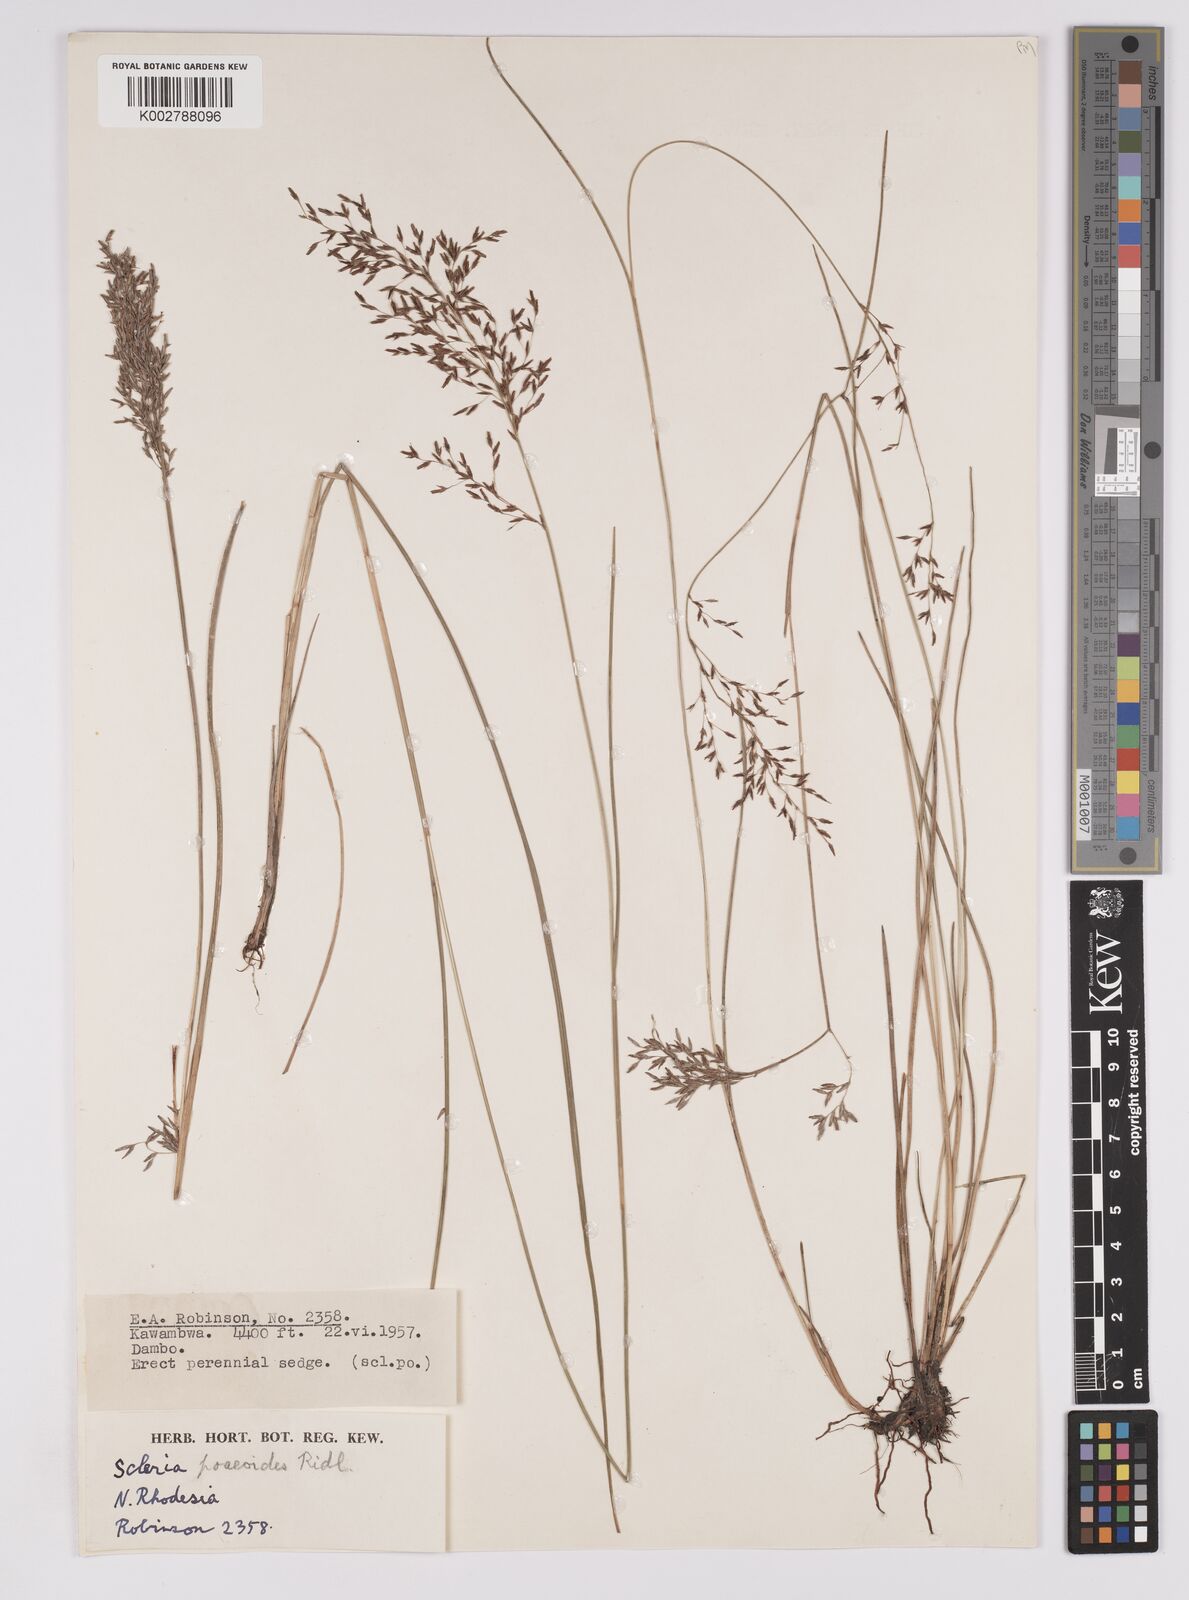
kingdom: Plantae
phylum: Tracheophyta
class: Liliopsida
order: Poales
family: Cyperaceae
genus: Scleria
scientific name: Scleria pooides
